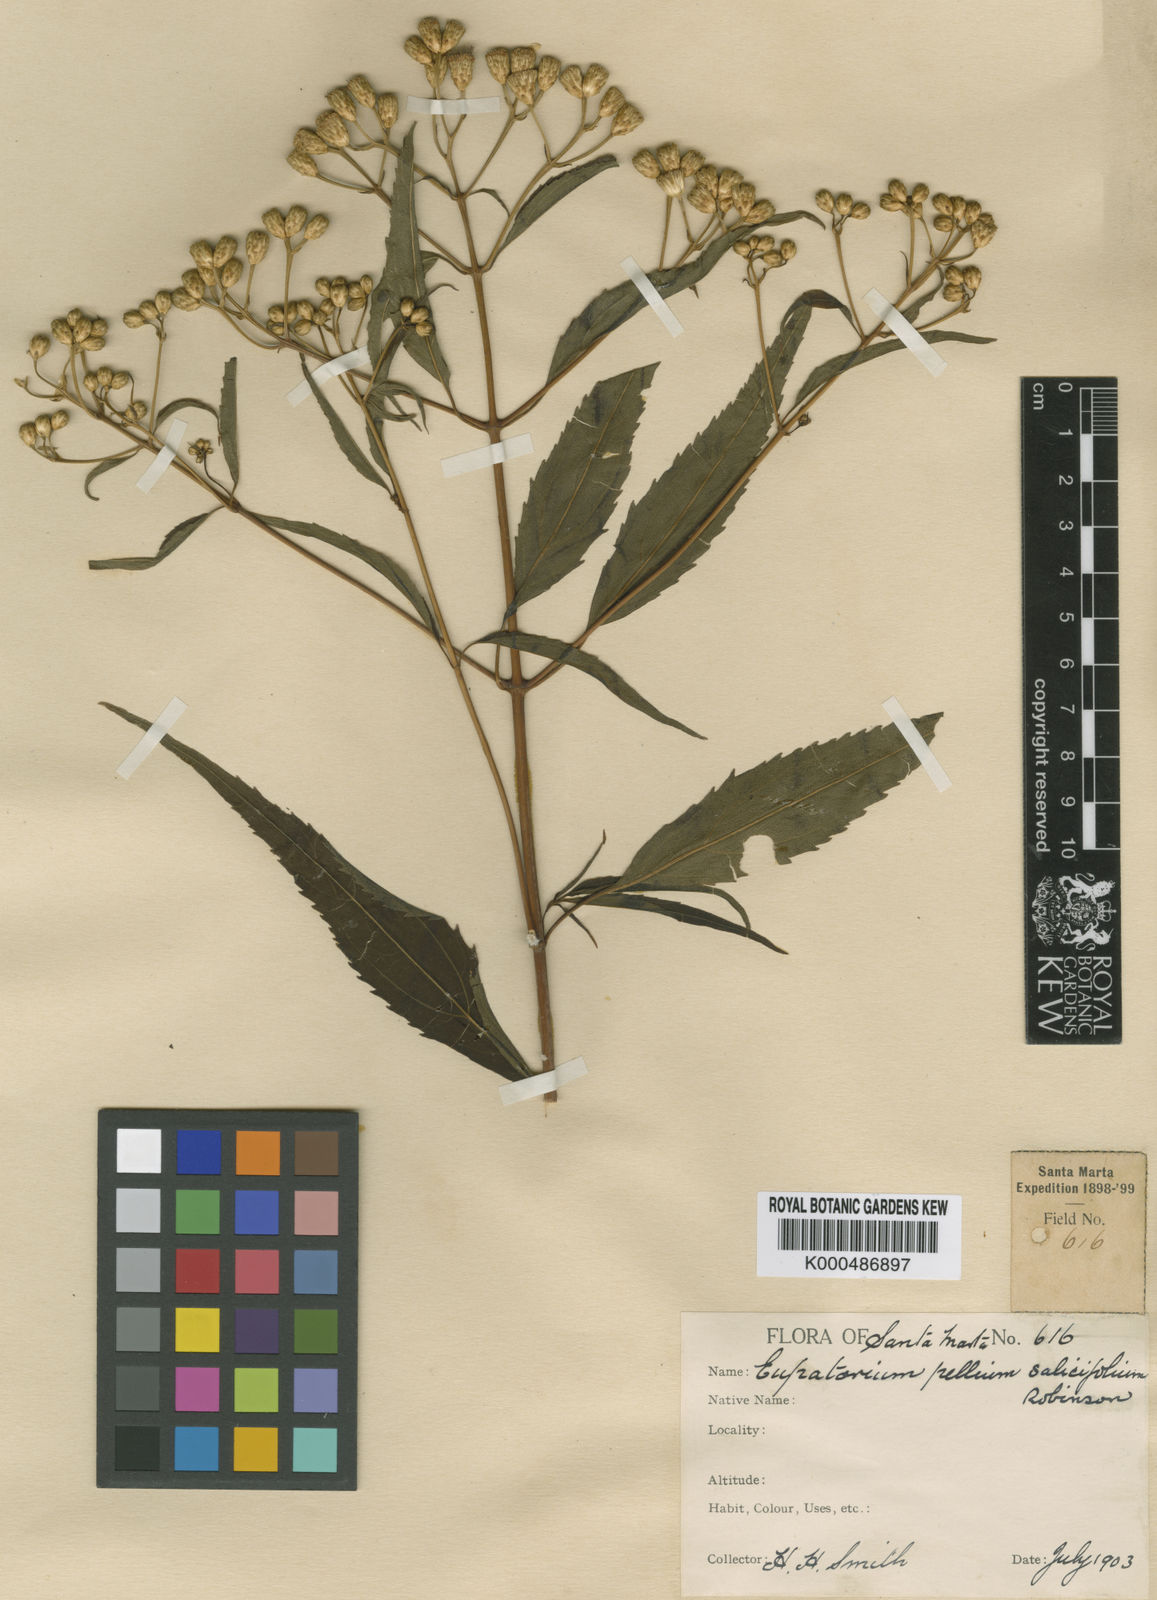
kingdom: Plantae
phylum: Tracheophyta
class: Magnoliopsida
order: Asterales
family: Asteraceae
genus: Chromolaena
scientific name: Chromolaena
